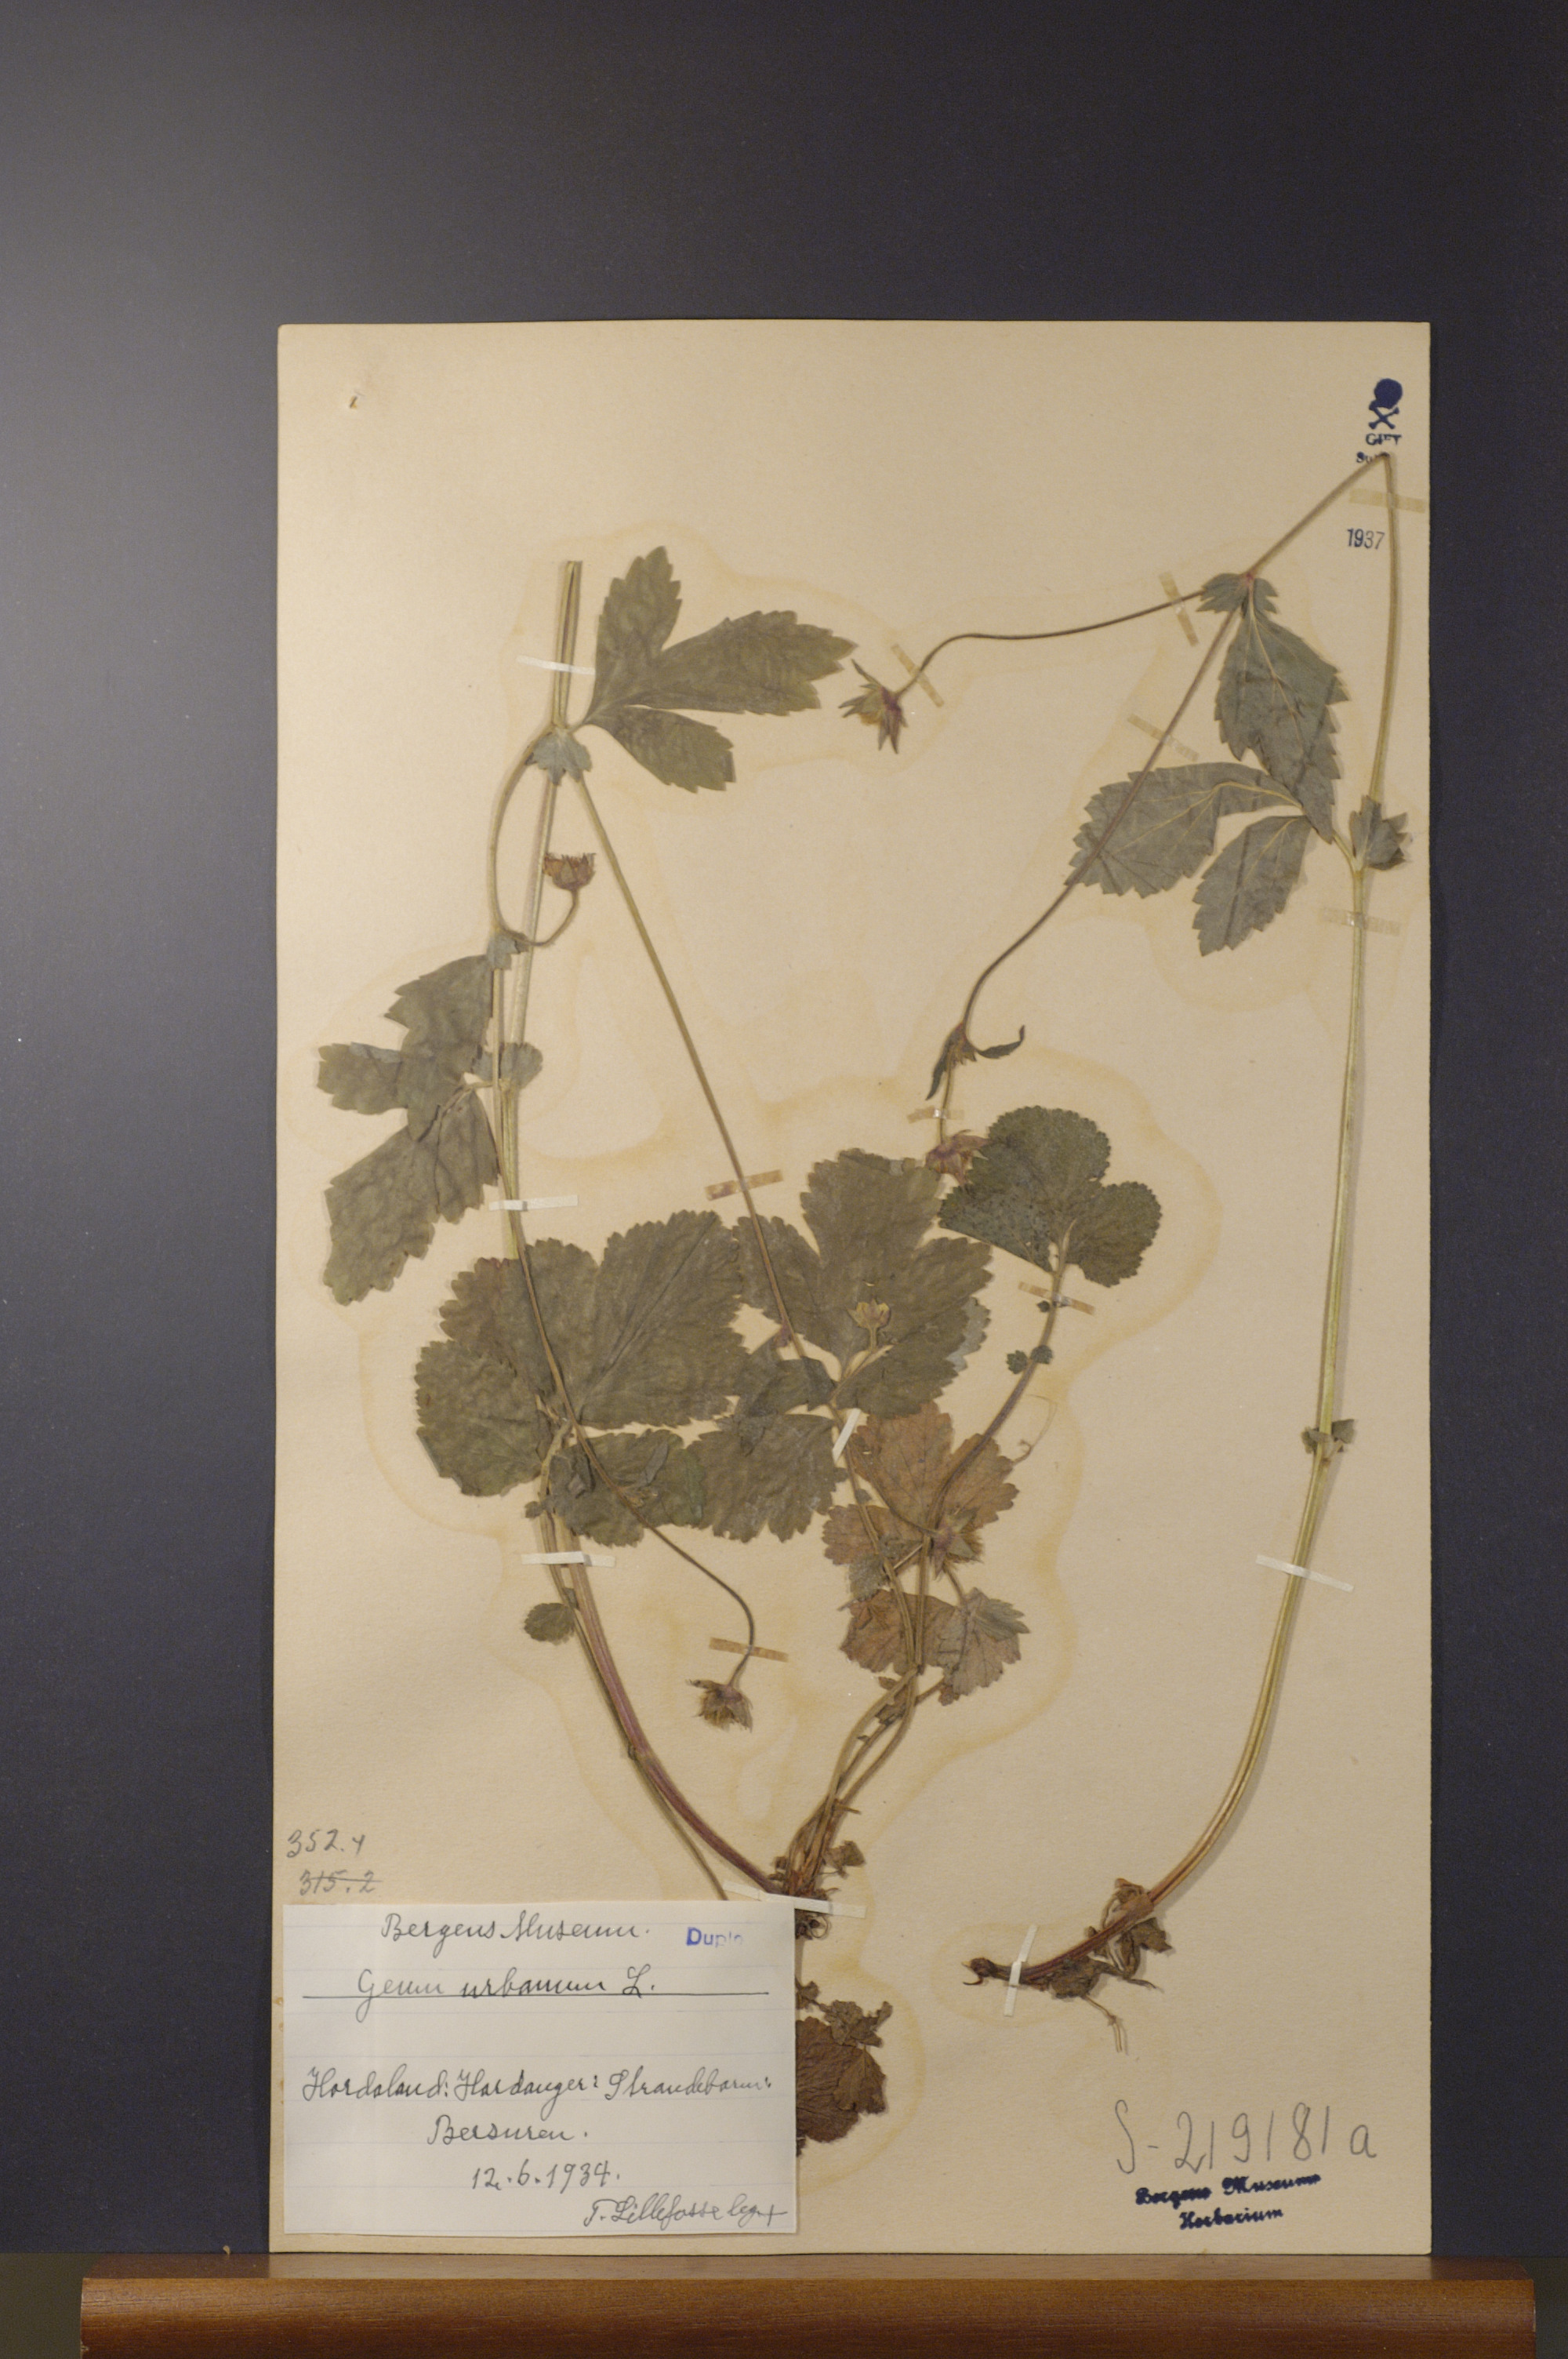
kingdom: Plantae
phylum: Tracheophyta
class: Magnoliopsida
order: Rosales
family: Rosaceae
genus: Geum
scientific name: Geum urbanum
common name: Wood avens
